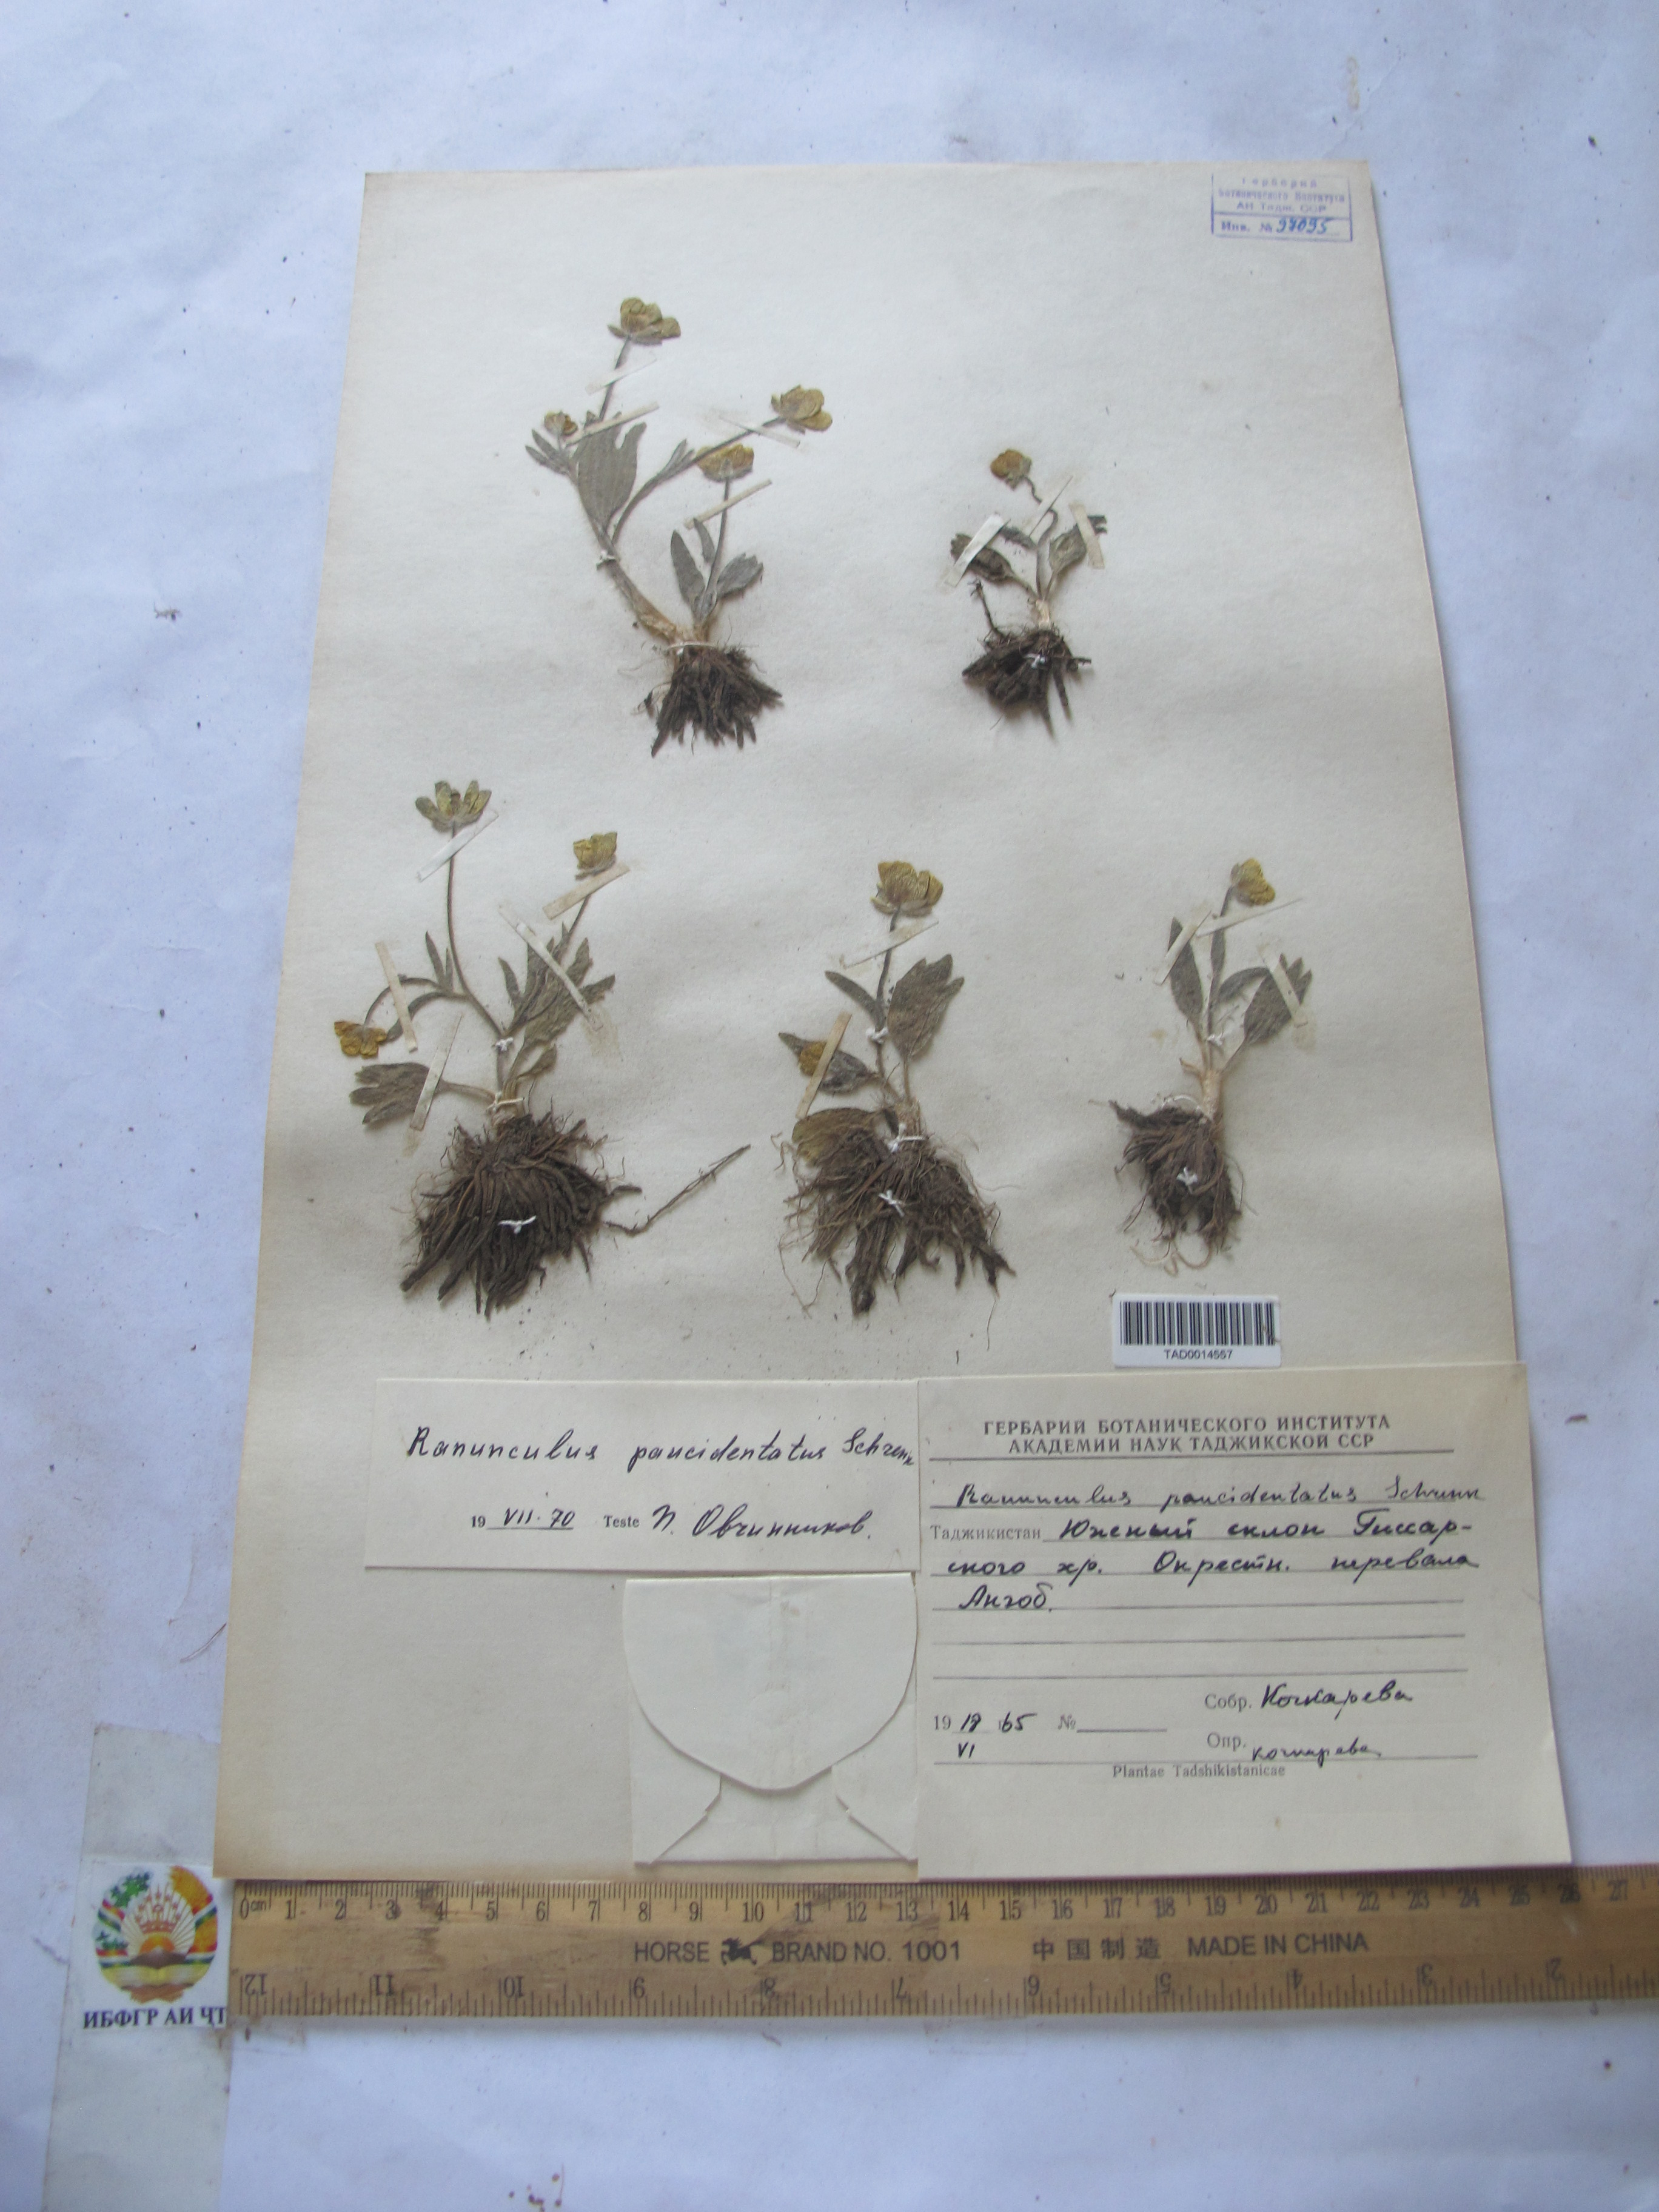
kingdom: Plantae
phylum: Tracheophyta
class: Magnoliopsida
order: Ranunculales
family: Ranunculaceae
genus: Ranunculus
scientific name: Ranunculus
